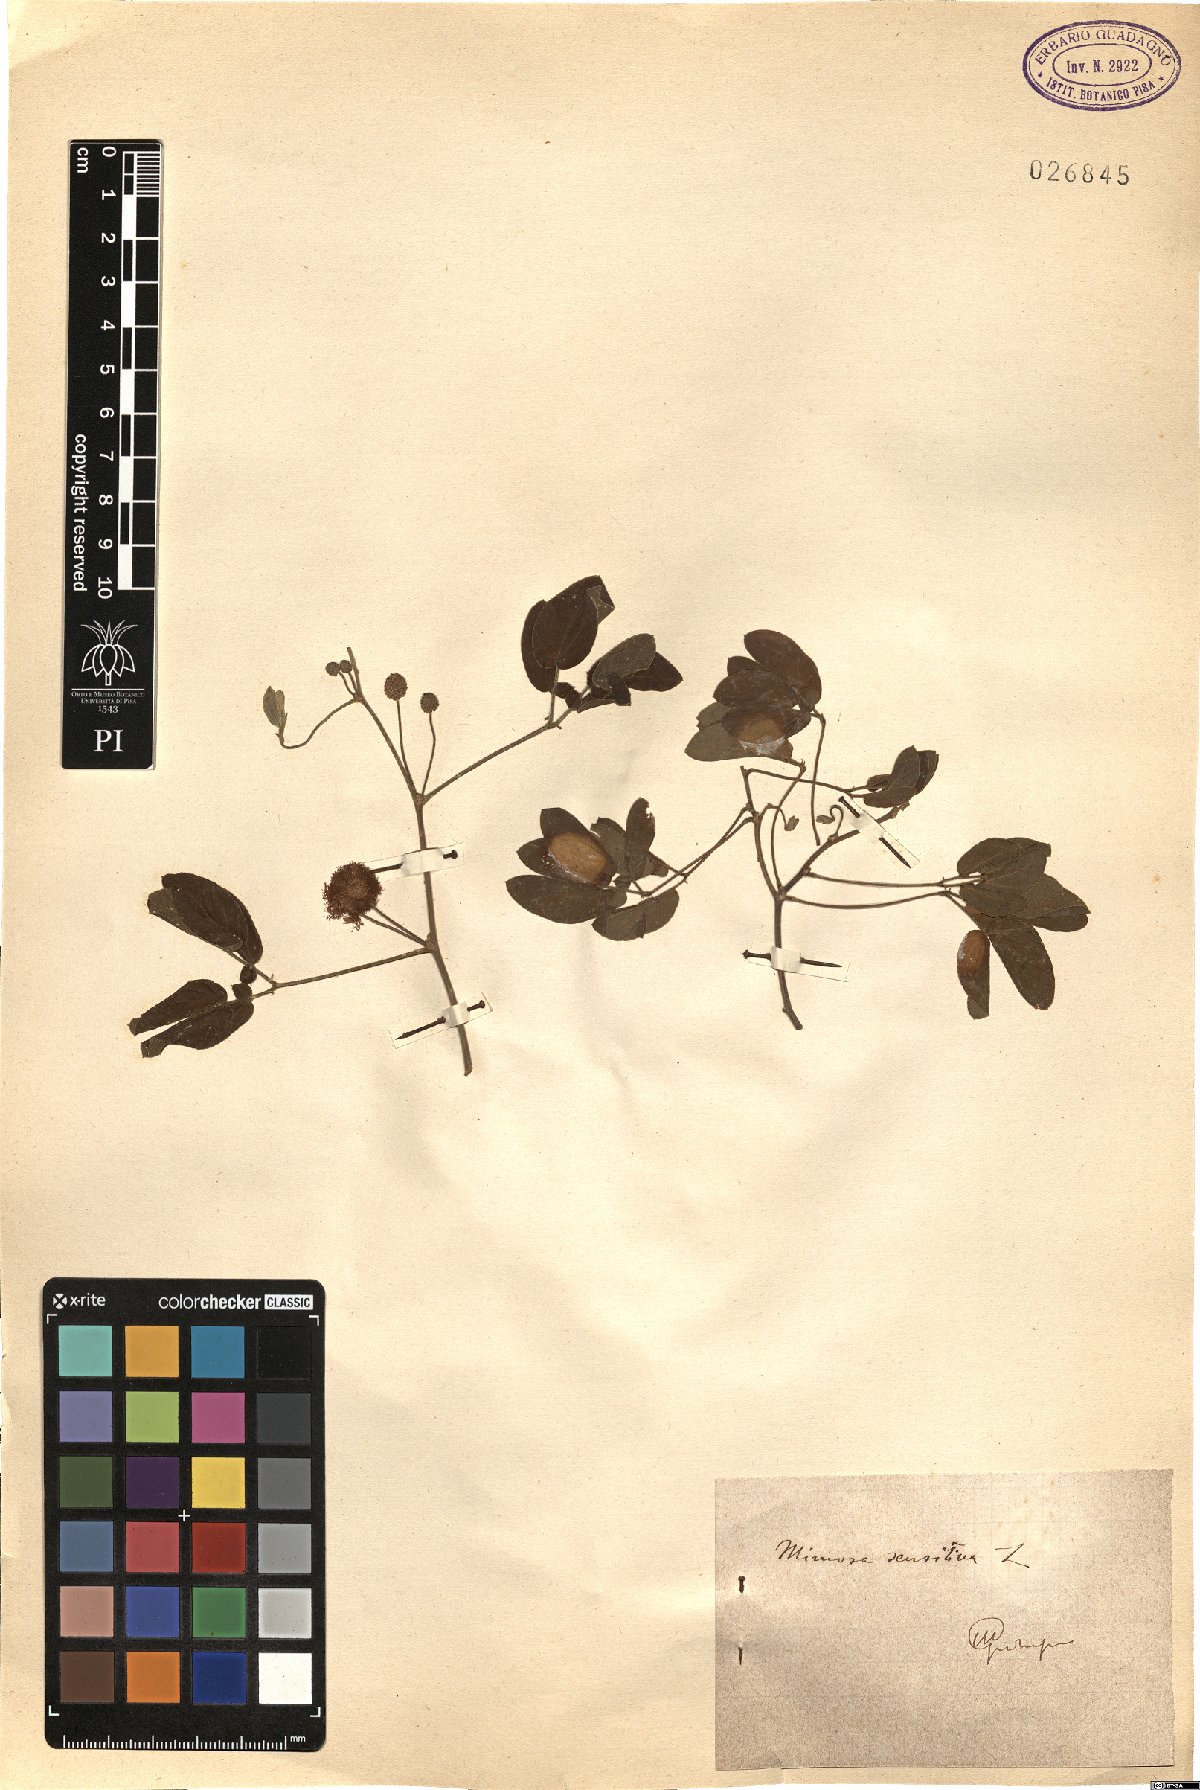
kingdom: Plantae
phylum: Tracheophyta
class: Magnoliopsida
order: Fabales
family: Fabaceae
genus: Mimosa
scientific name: Mimosa sensitiva
